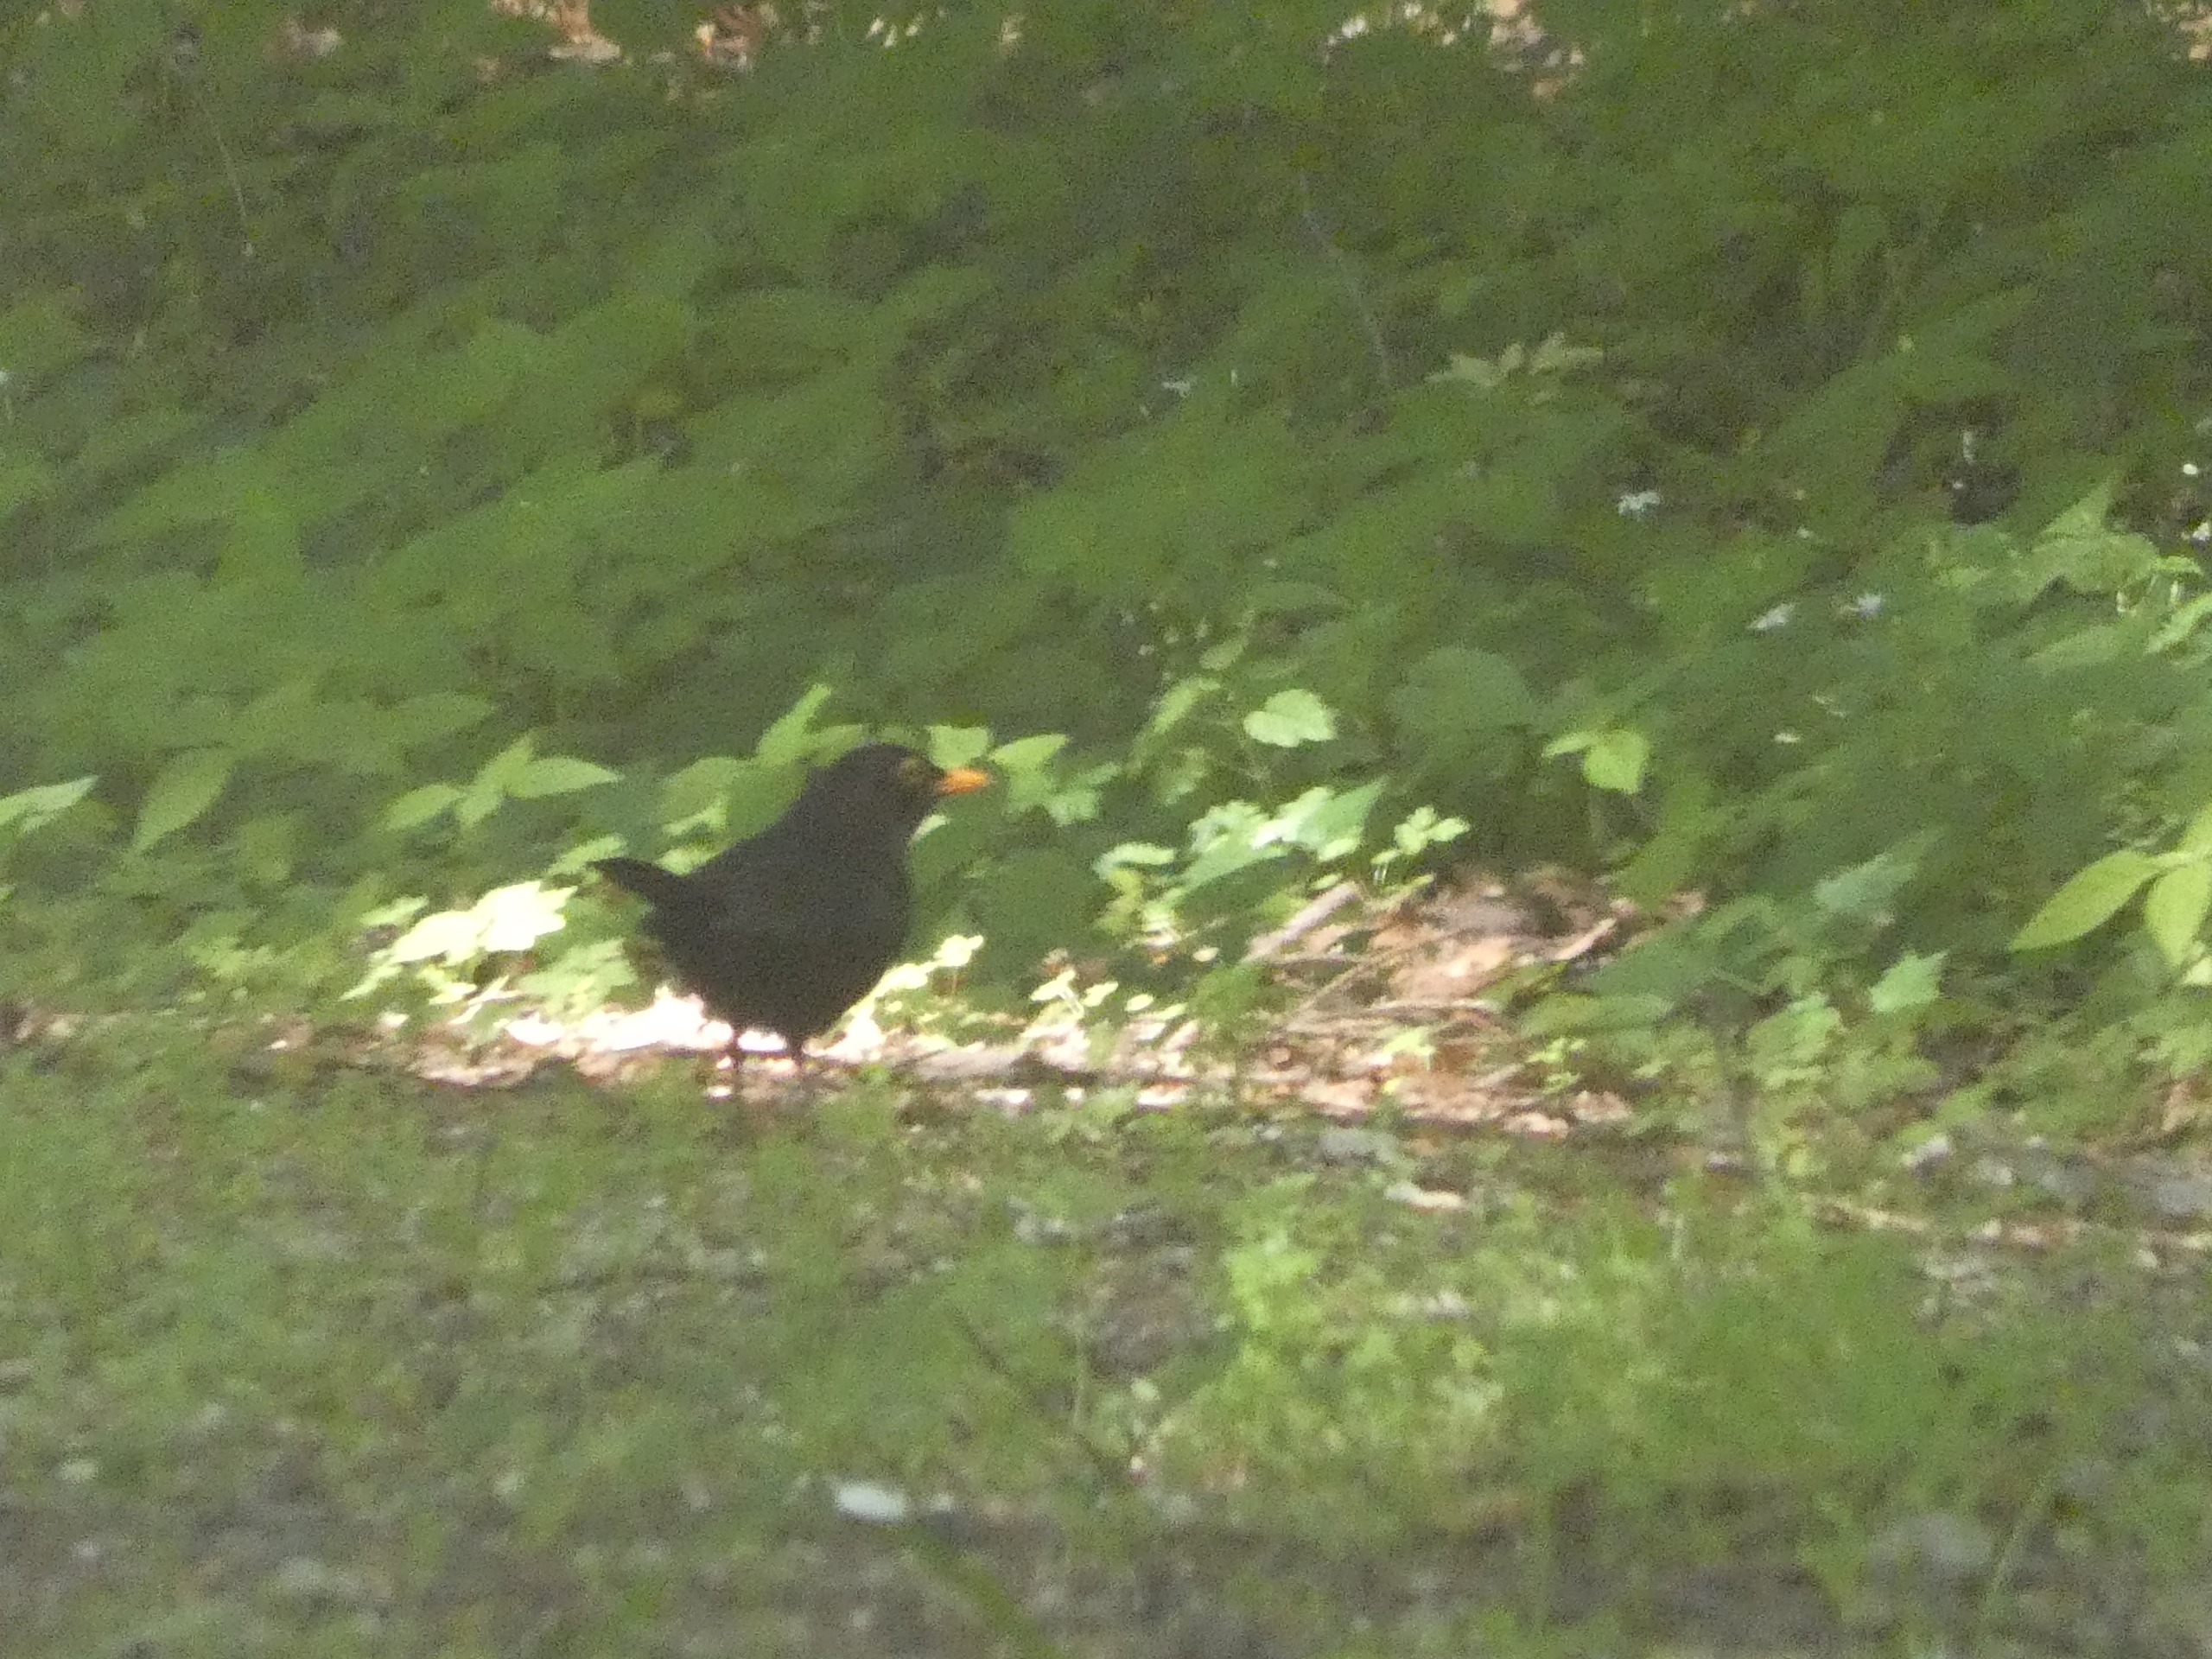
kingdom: Animalia
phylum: Chordata
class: Aves
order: Passeriformes
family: Turdidae
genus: Turdus
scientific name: Turdus merula
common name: Solsort
